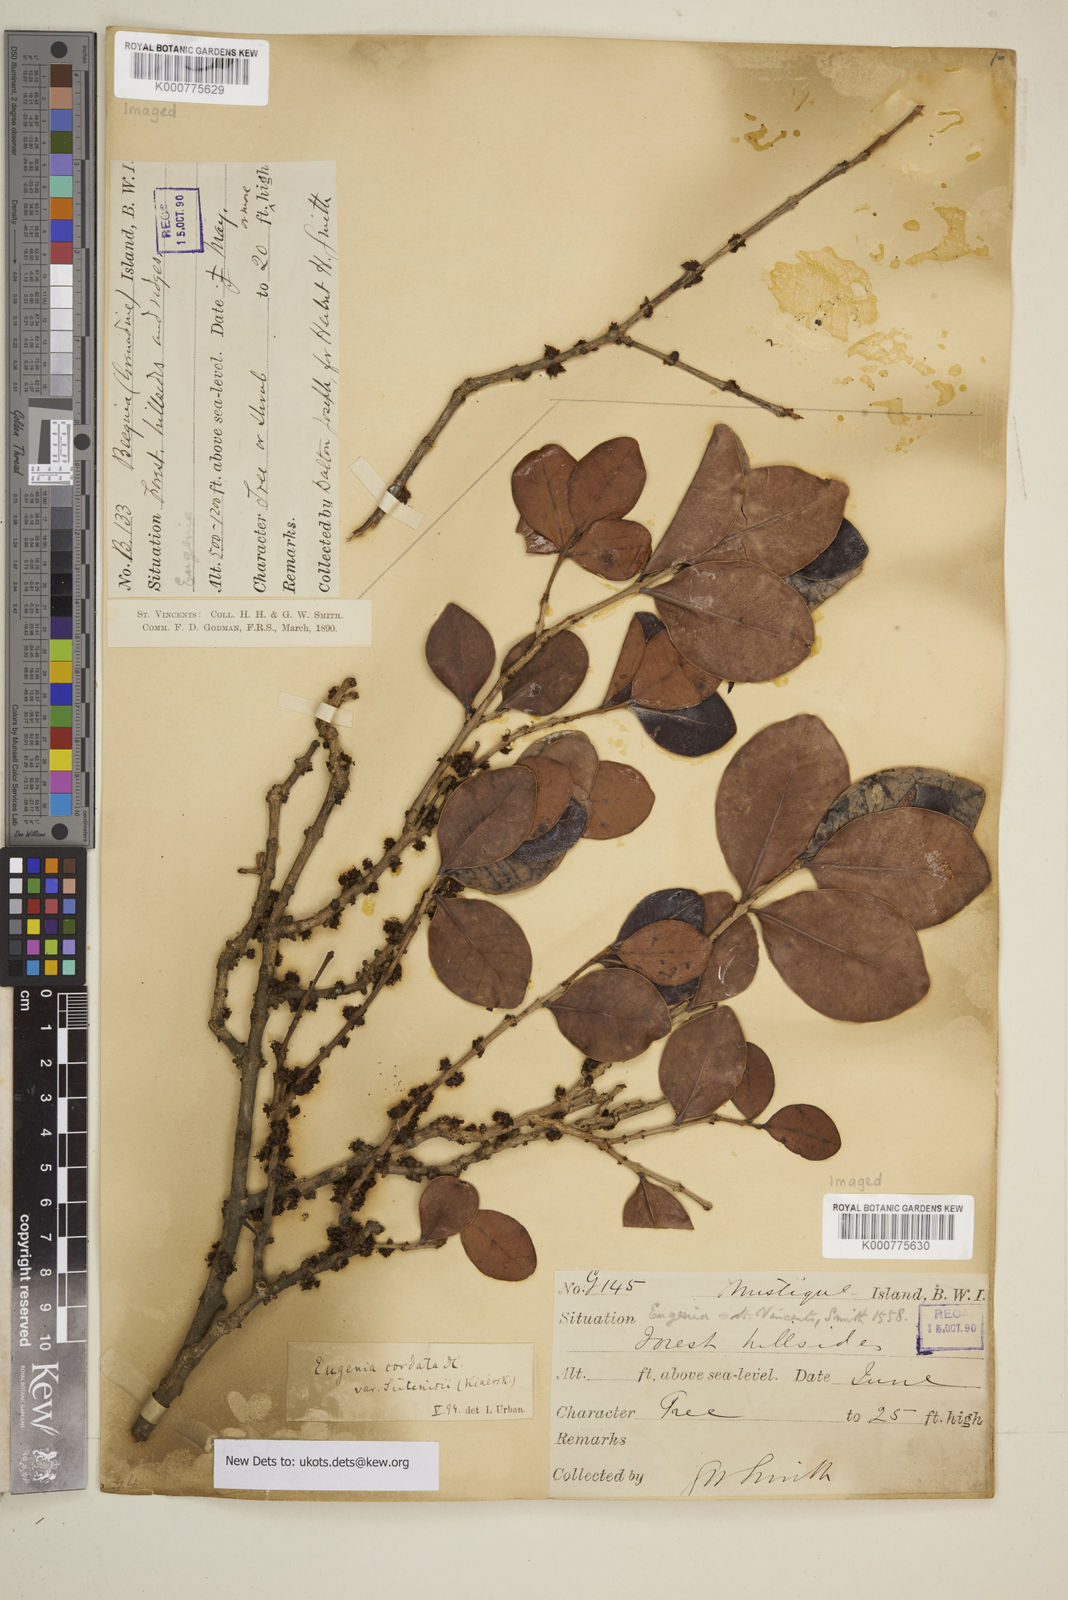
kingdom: Plantae
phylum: Tracheophyta
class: Magnoliopsida
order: Myrtales
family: Myrtaceae
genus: Eugenia
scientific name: Eugenia cordata
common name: Lathberry
